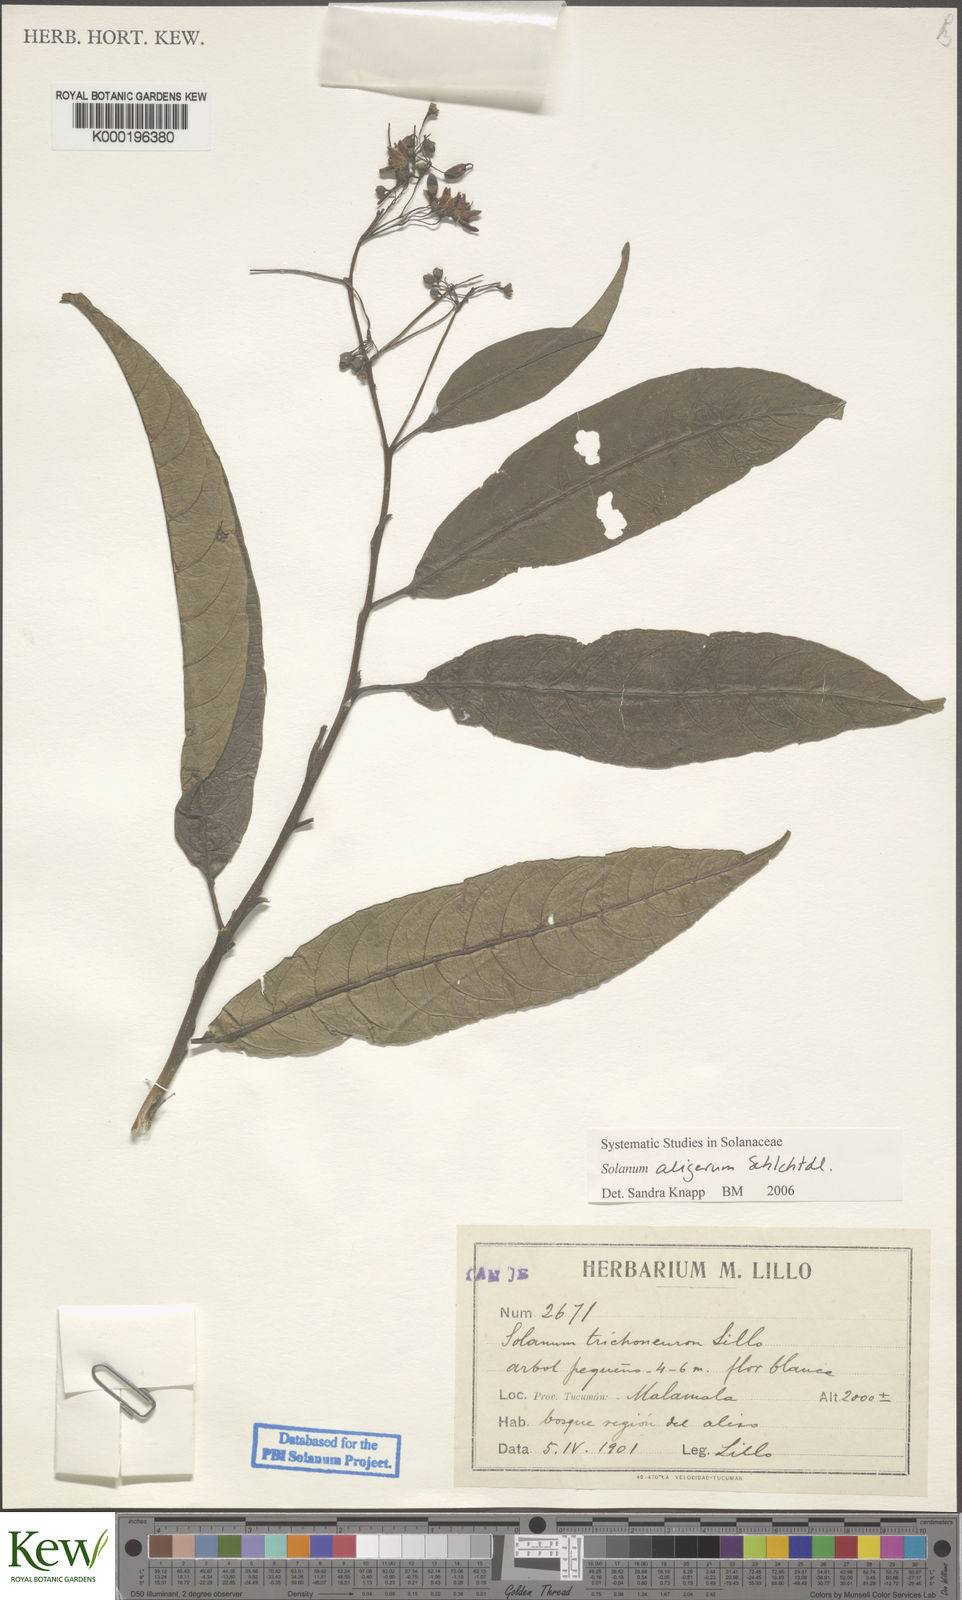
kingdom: Plantae
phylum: Tracheophyta
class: Magnoliopsida
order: Solanales
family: Solanaceae
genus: Solanum
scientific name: Solanum aligerum
